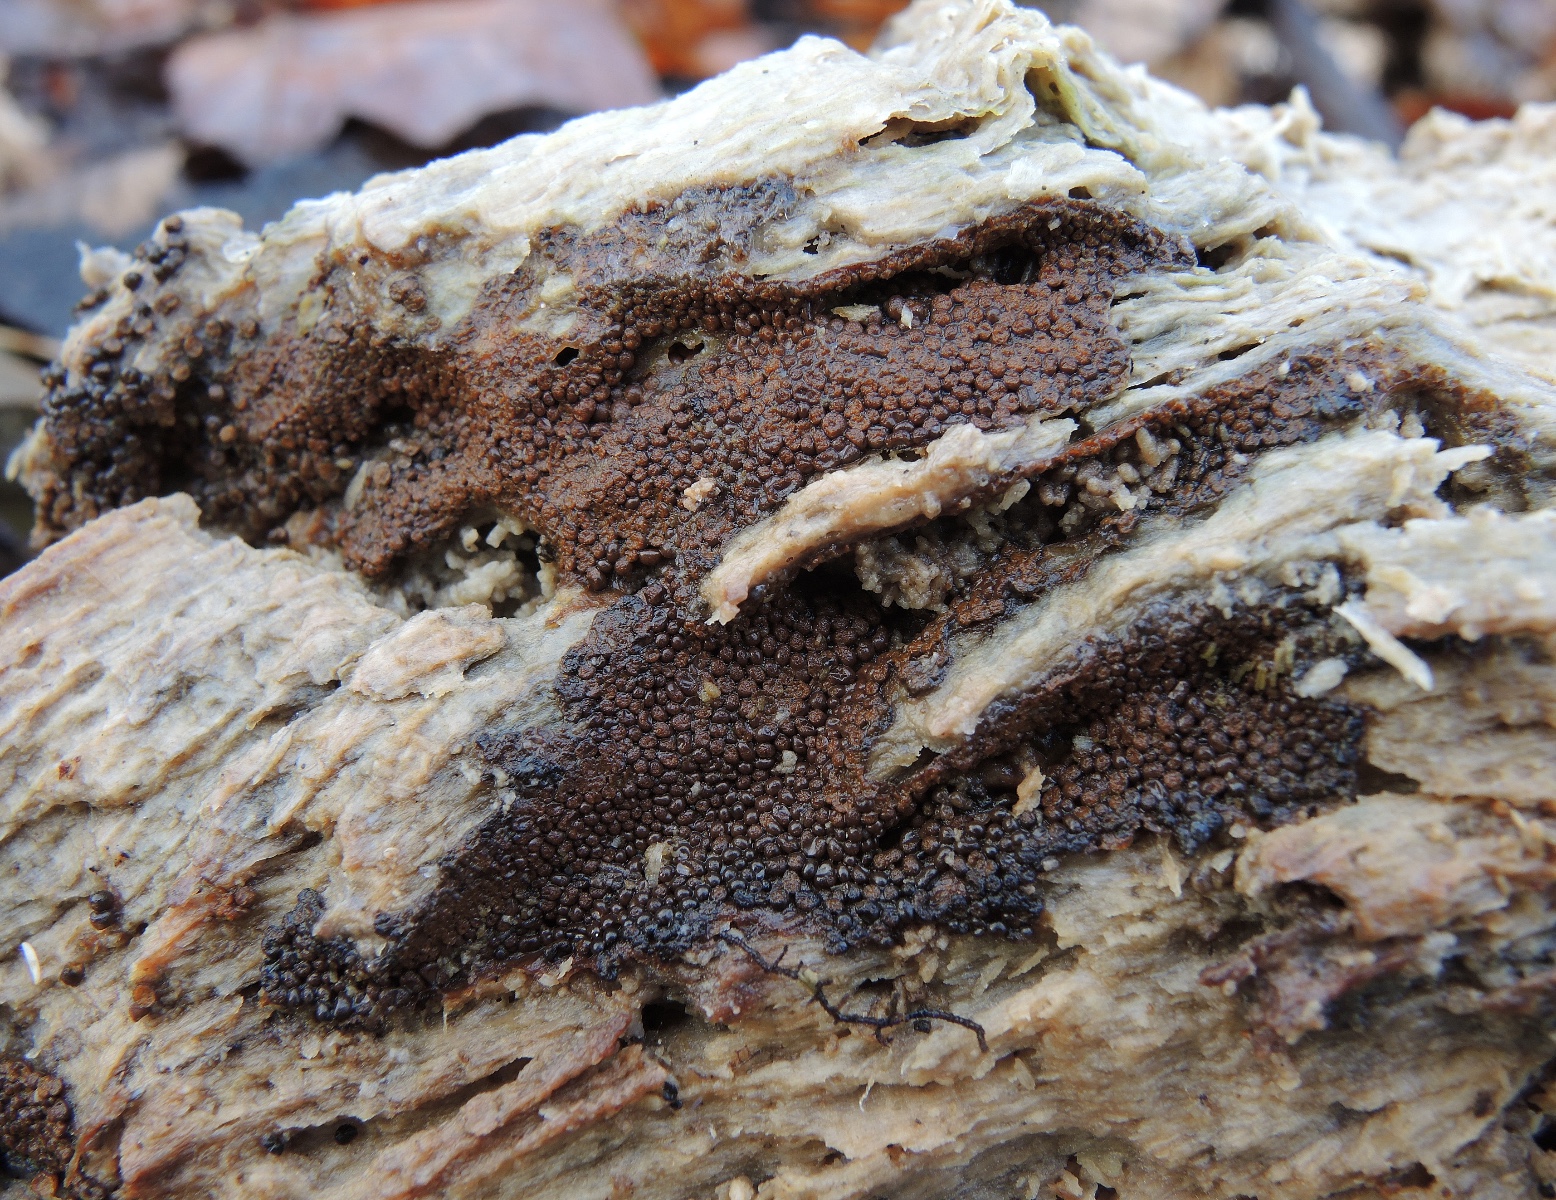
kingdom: Protozoa
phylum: Mycetozoa
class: Myxomycetes
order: Trichiales
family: Trichiaceae
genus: Trichia
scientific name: Trichia scabra
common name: tæppe-hårbold
